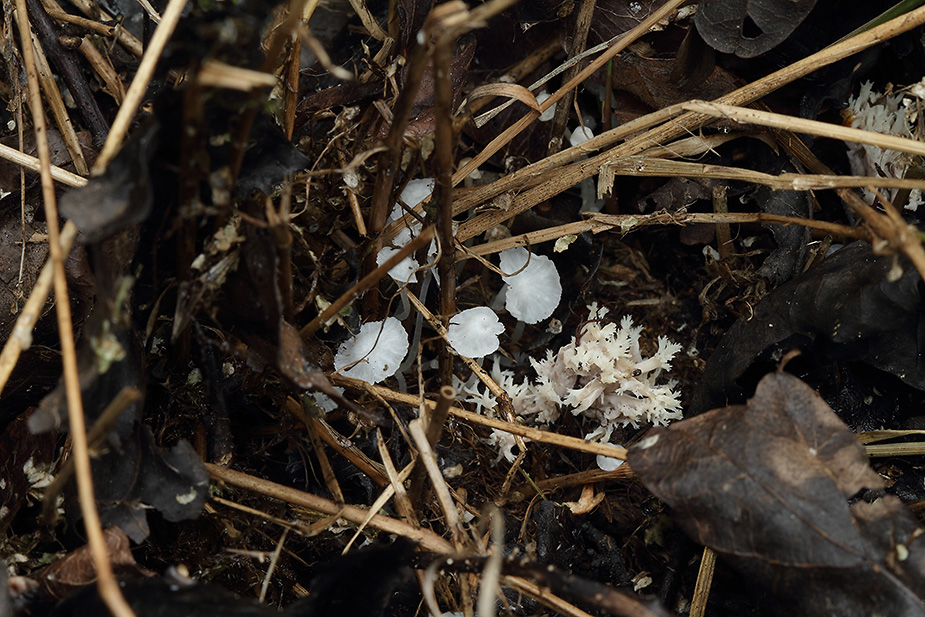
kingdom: Fungi
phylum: Basidiomycota
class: Agaricomycetes
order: Agaricales
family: Tricholomataceae
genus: Delicatula
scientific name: Delicatula integrella
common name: slørhuesvamp
